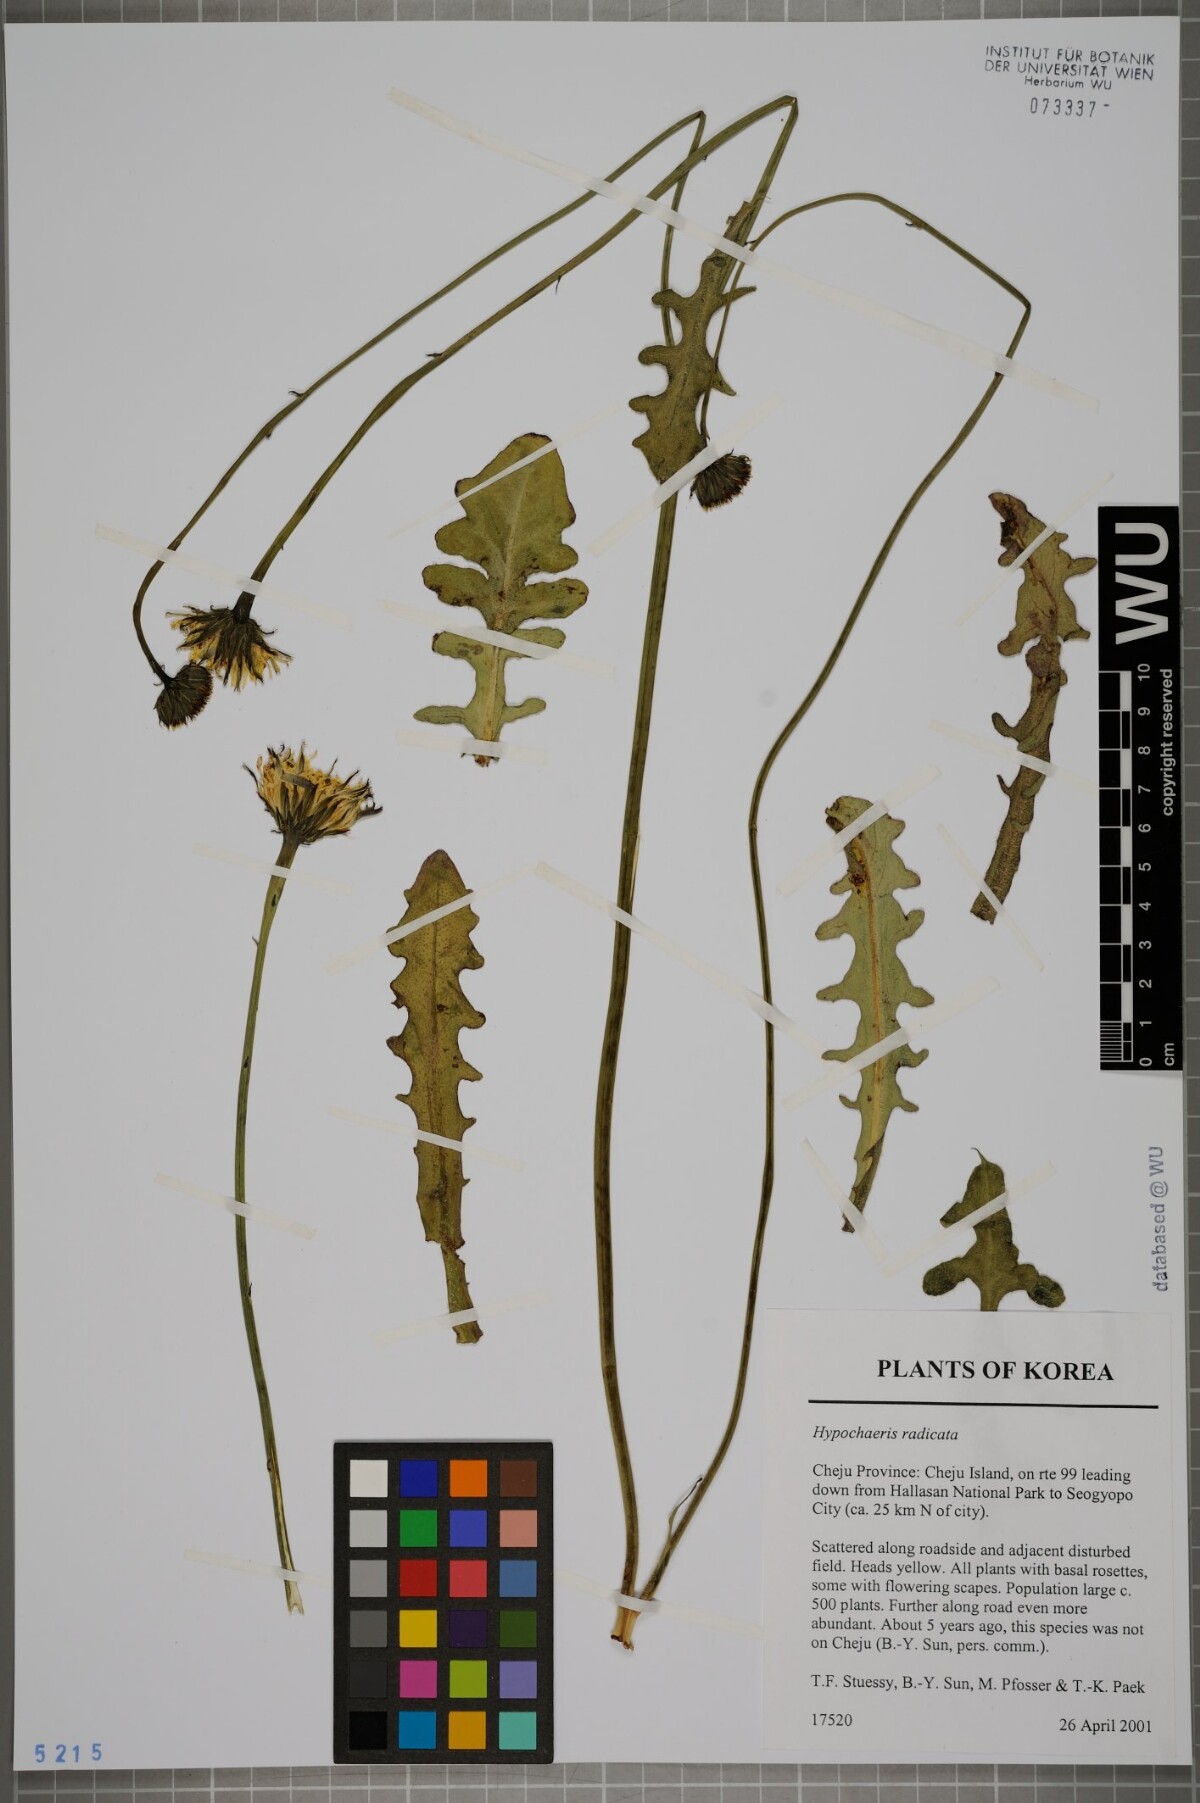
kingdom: Plantae
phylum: Tracheophyta
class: Magnoliopsida
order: Asterales
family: Asteraceae
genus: Hypochaeris
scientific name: Hypochaeris radicata
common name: Flatweed
